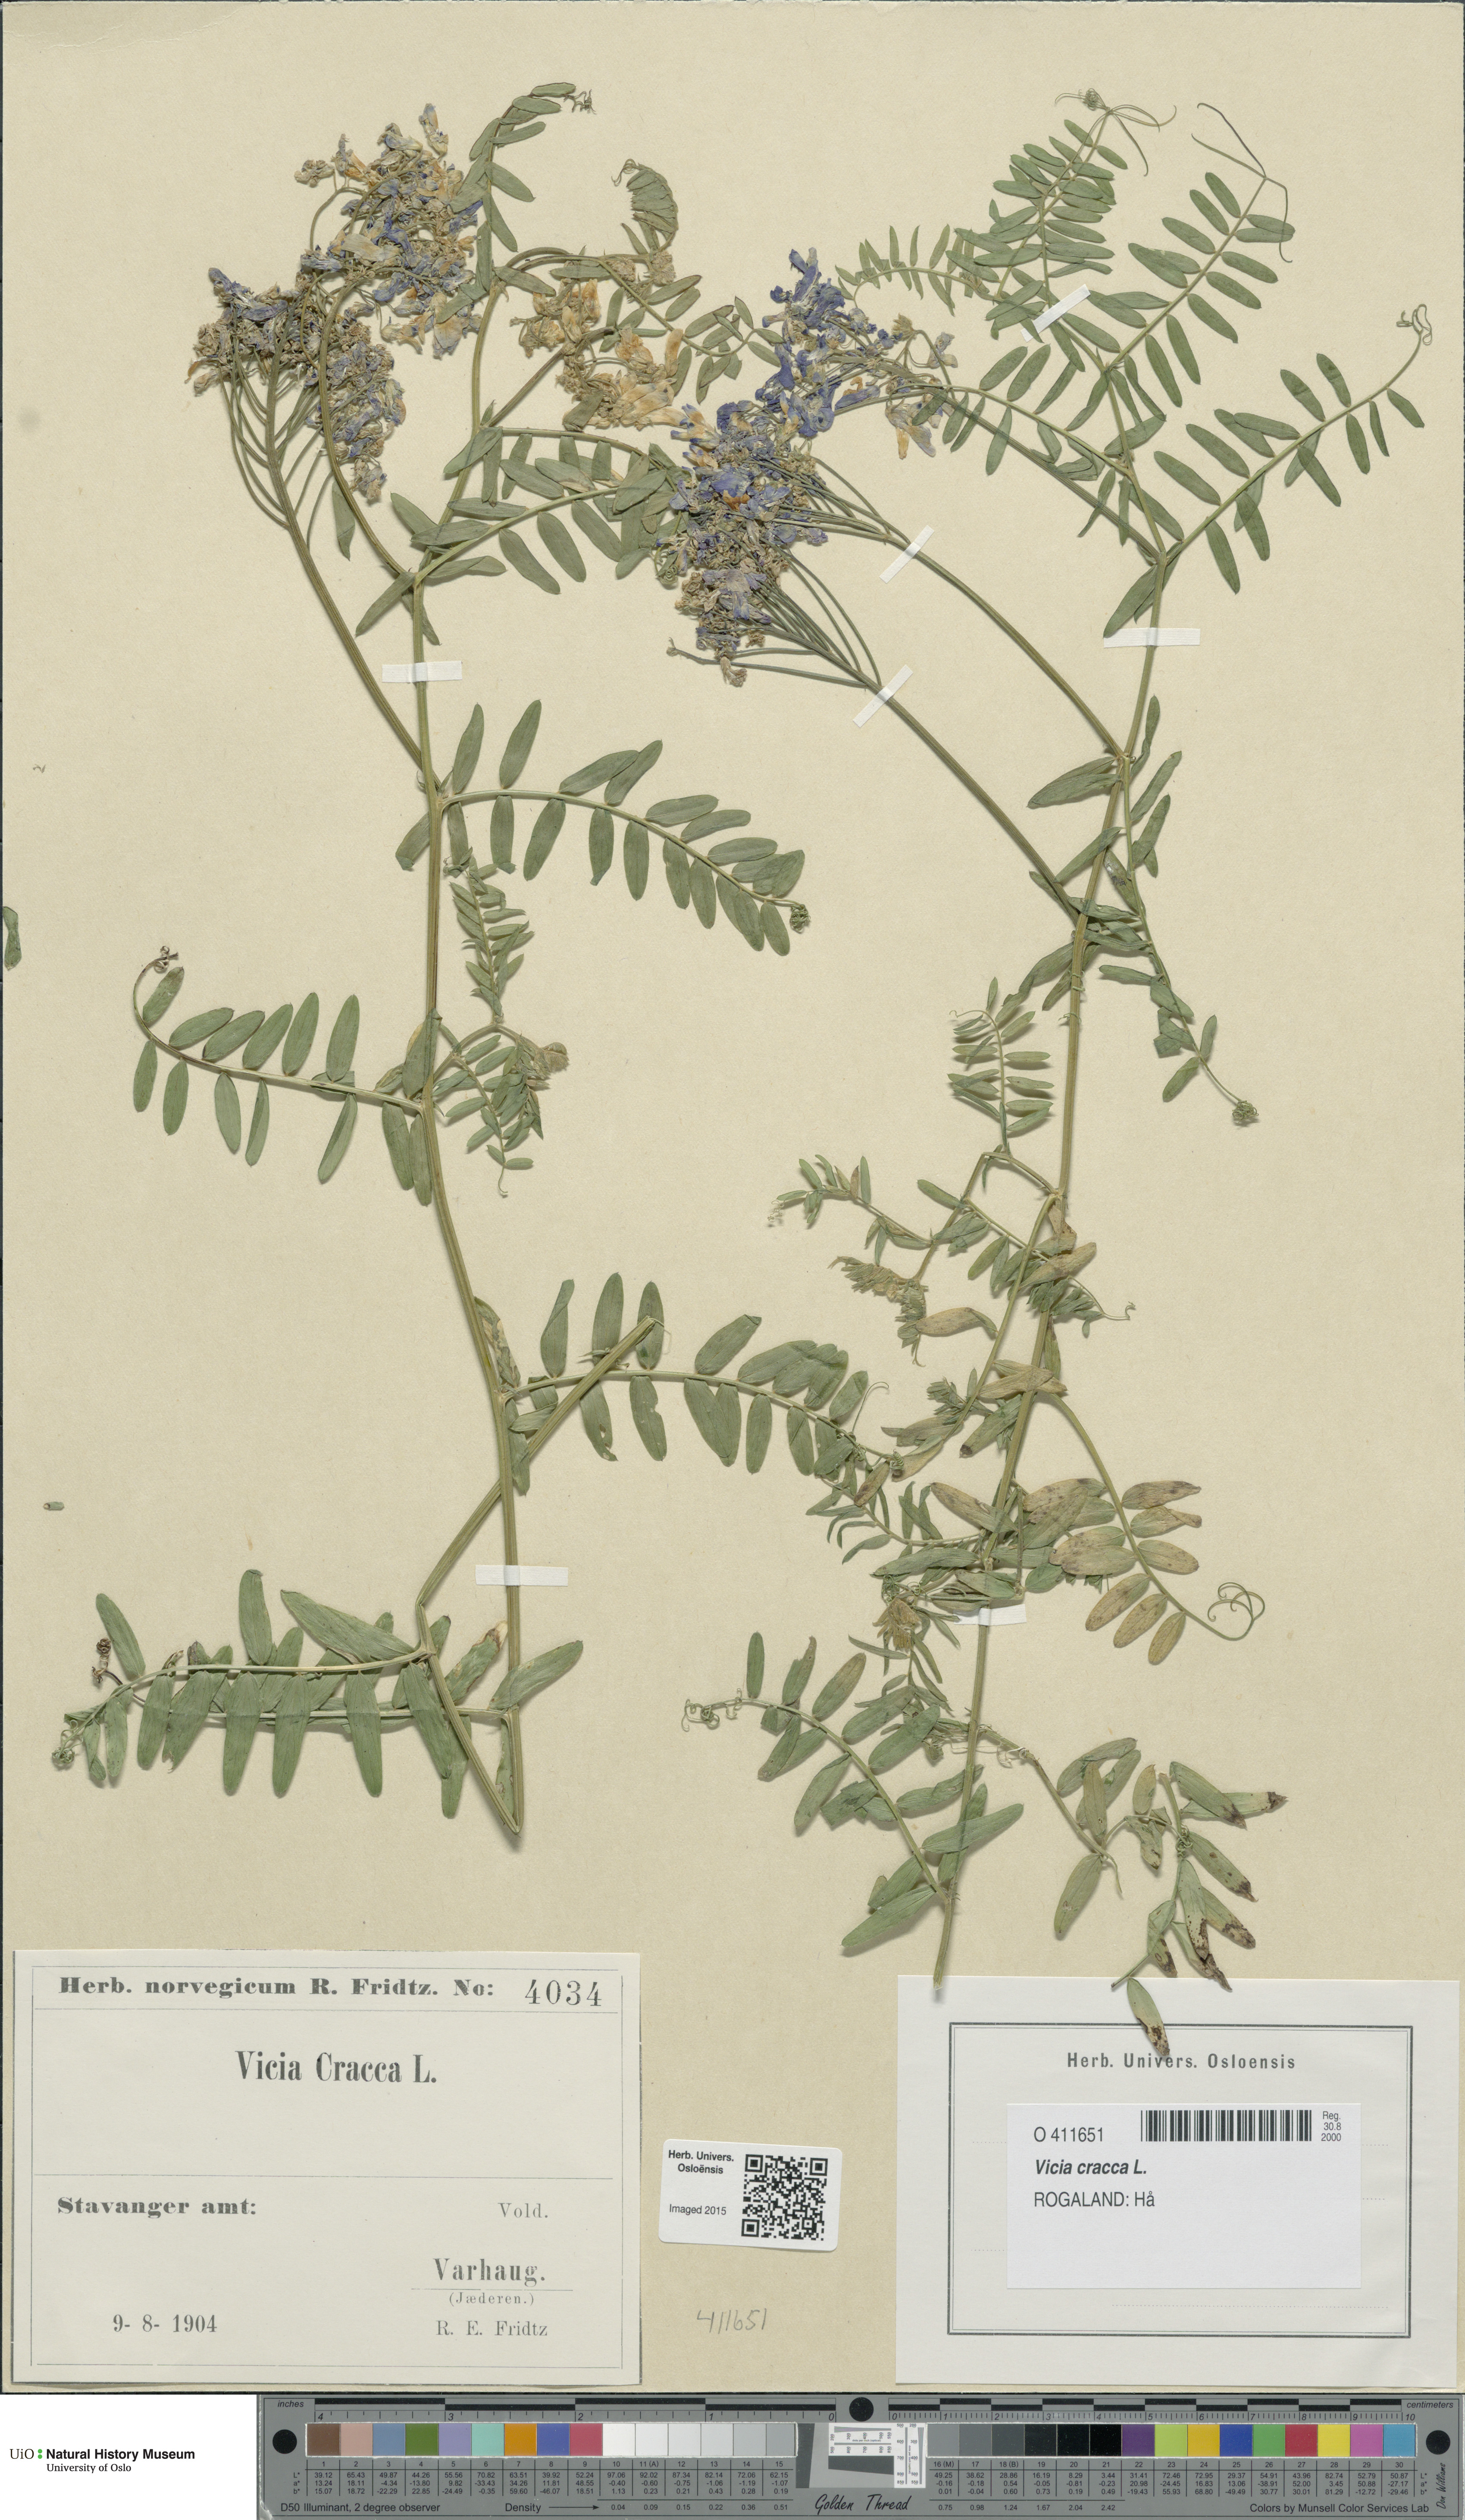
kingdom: Plantae
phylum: Tracheophyta
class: Magnoliopsida
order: Fabales
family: Fabaceae
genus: Vicia
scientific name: Vicia cracca
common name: Bird vetch
